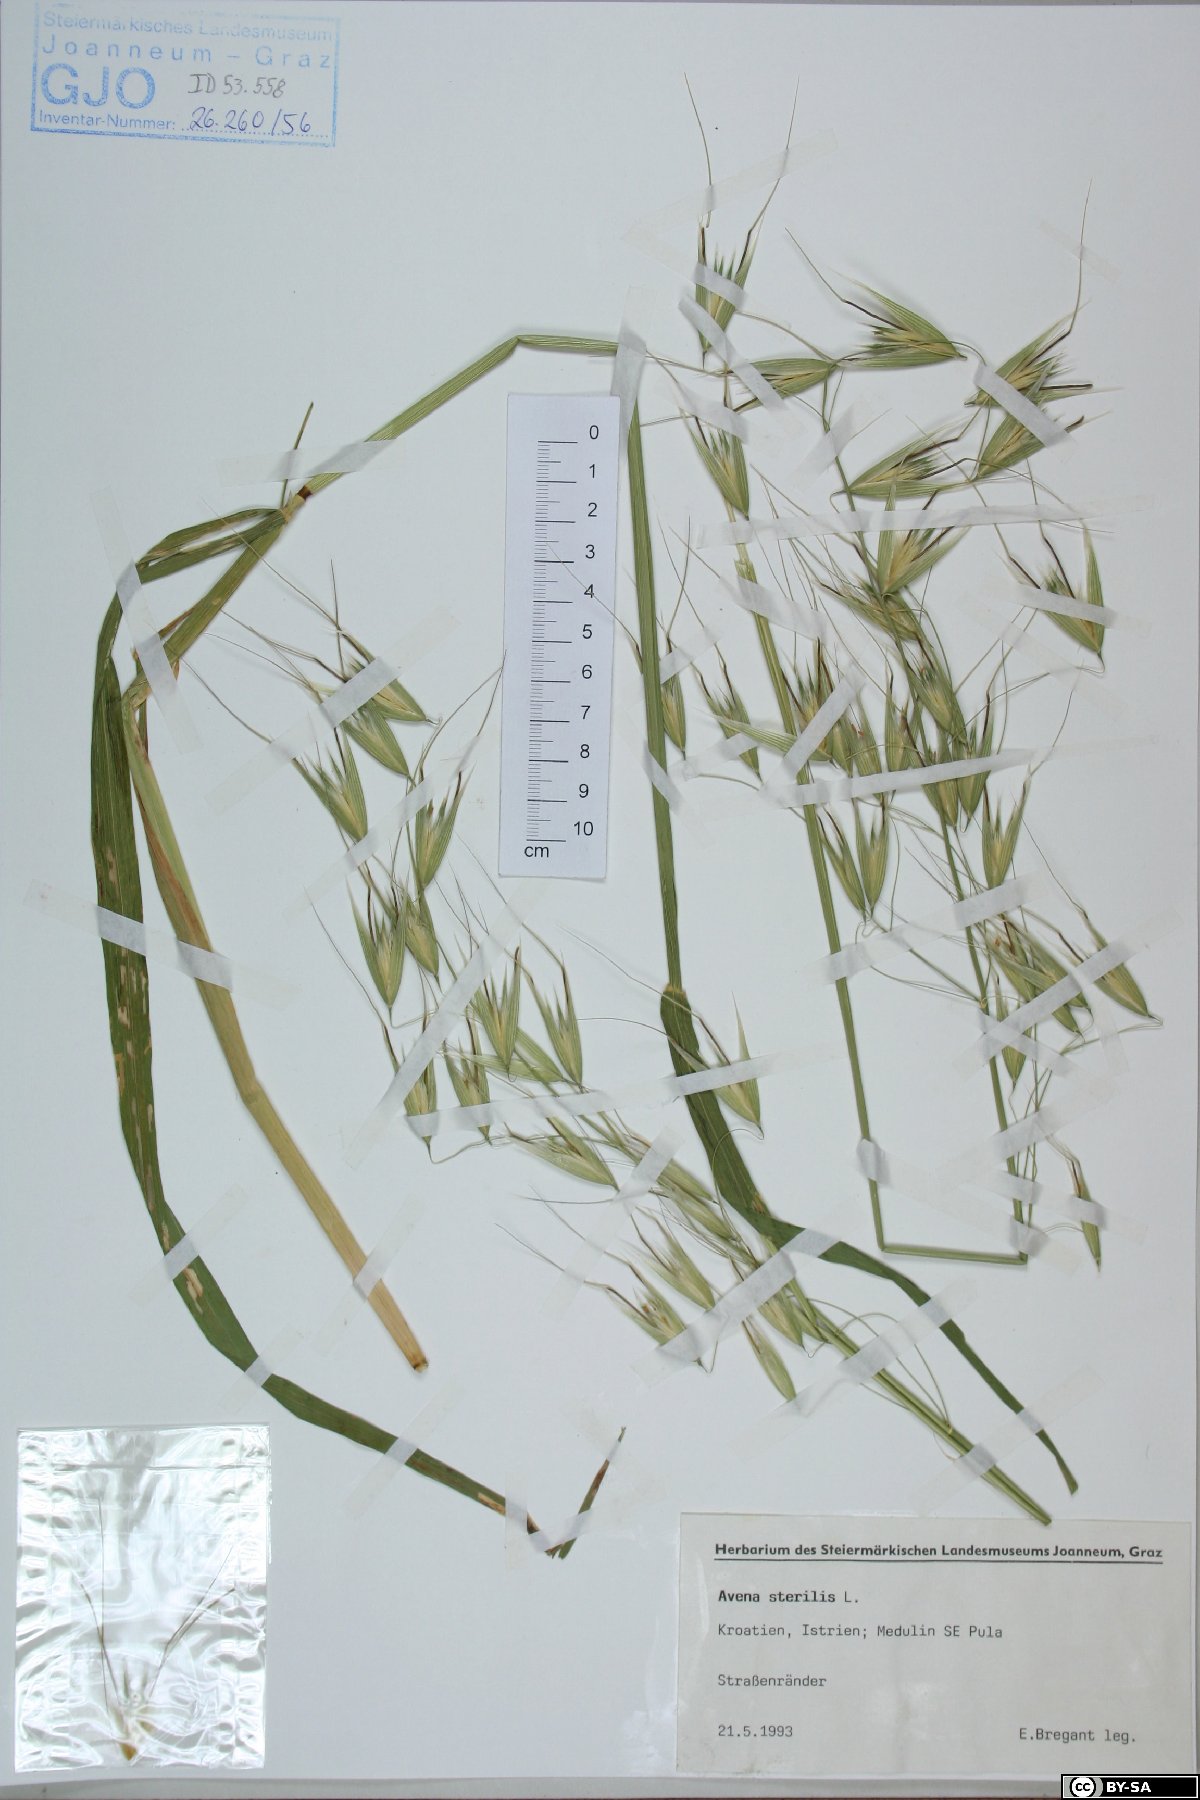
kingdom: Plantae
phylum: Tracheophyta
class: Liliopsida
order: Poales
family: Poaceae
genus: Avena
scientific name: Avena sterilis
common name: Animated oat
